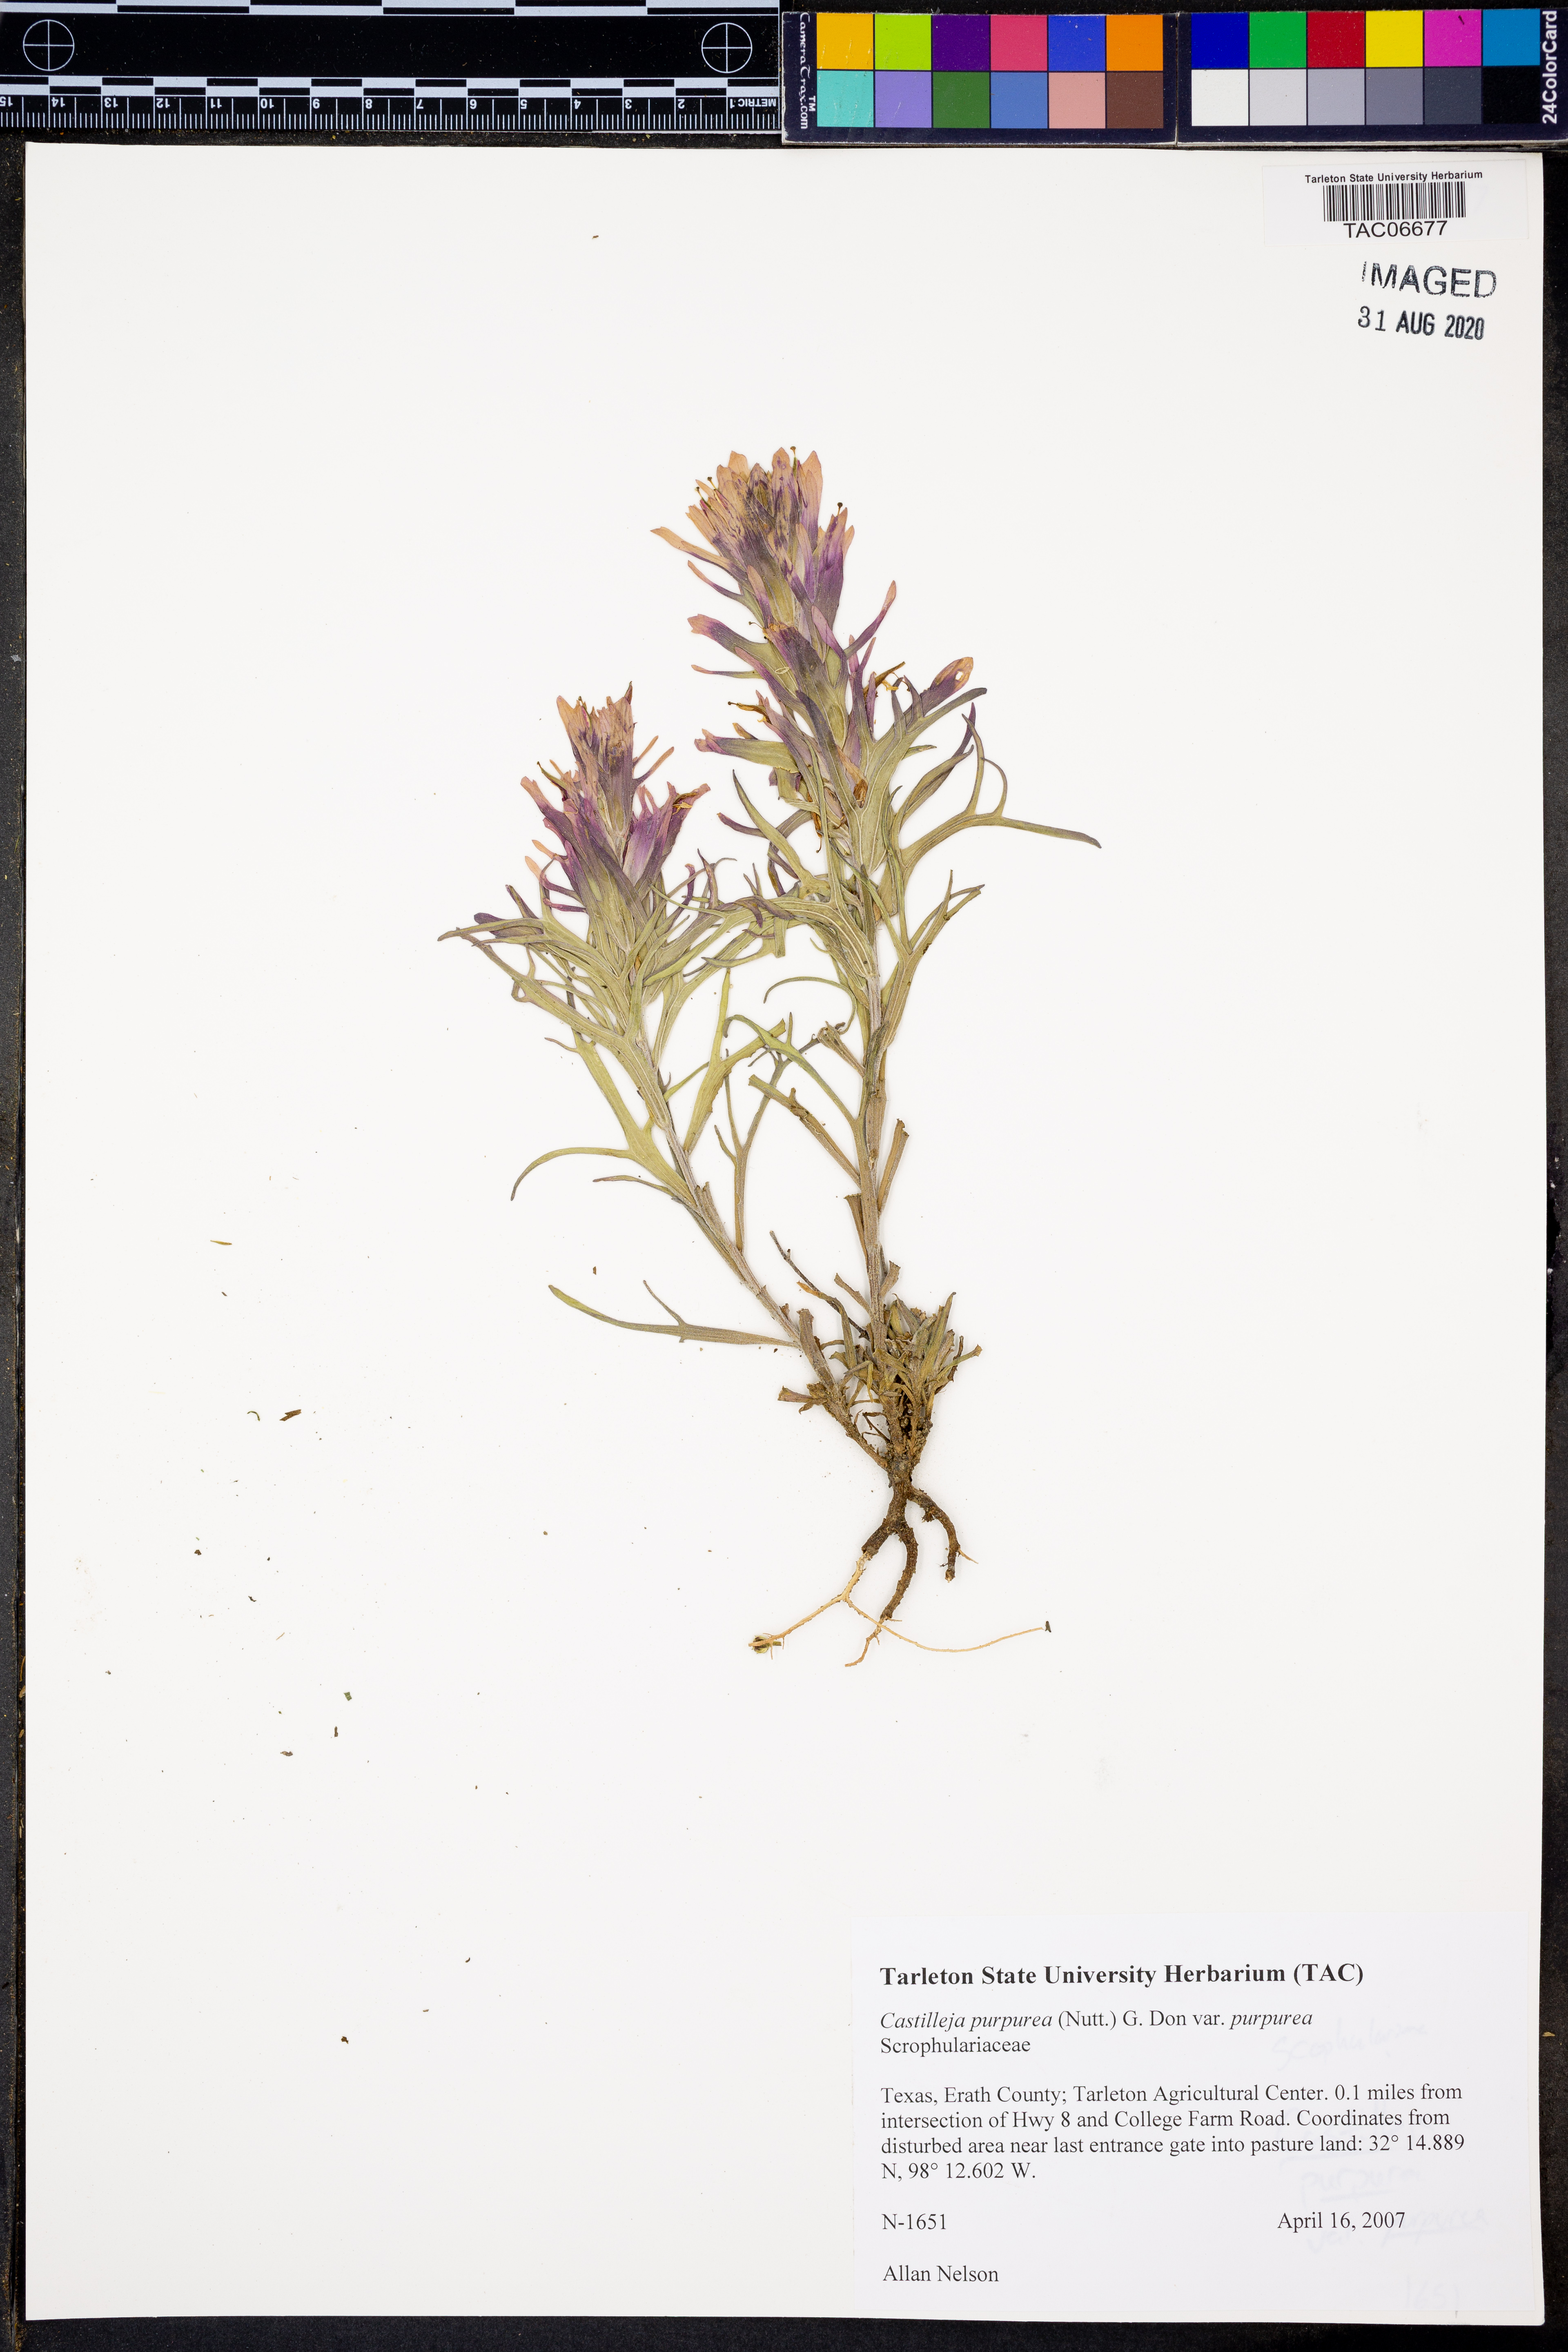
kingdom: Plantae
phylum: Tracheophyta
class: Magnoliopsida
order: Lamiales
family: Orobanchaceae
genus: Castilleja
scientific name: Castilleja purpurea
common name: Plains paintbrush
